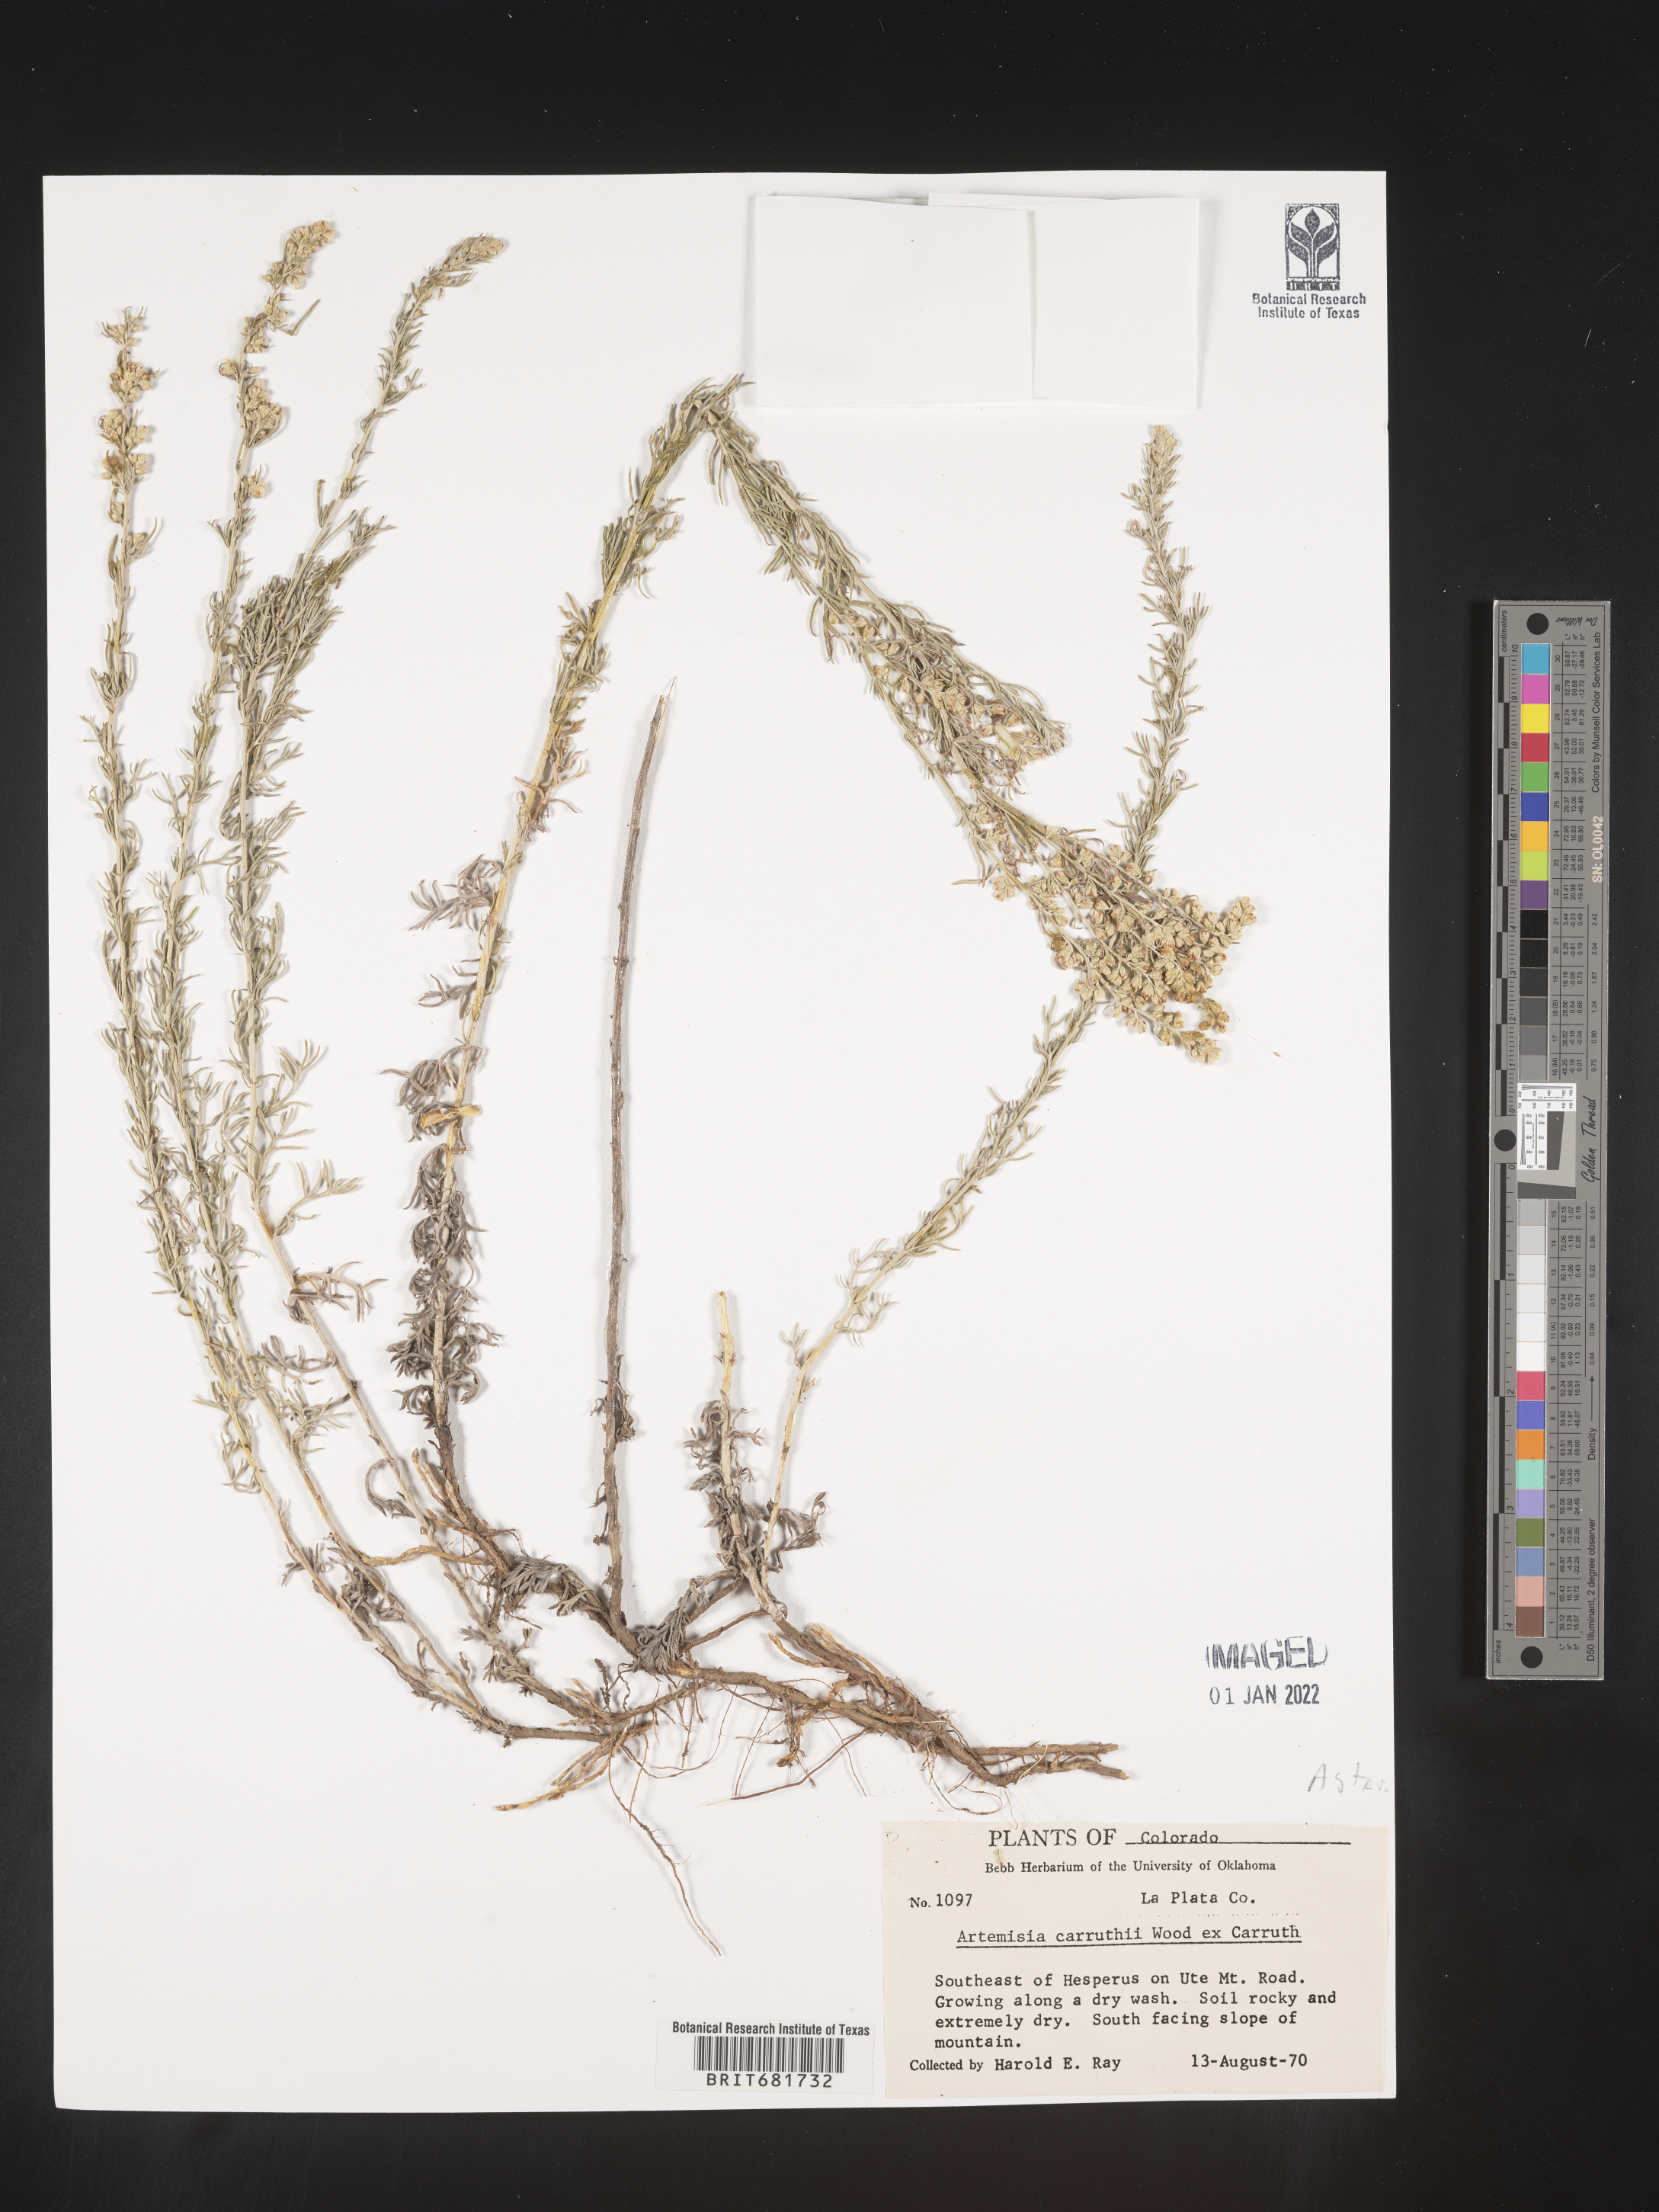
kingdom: Plantae
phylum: Tracheophyta
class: Magnoliopsida
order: Asterales
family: Asteraceae
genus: Artemisia
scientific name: Artemisia carruthii
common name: Carruth wormwood
